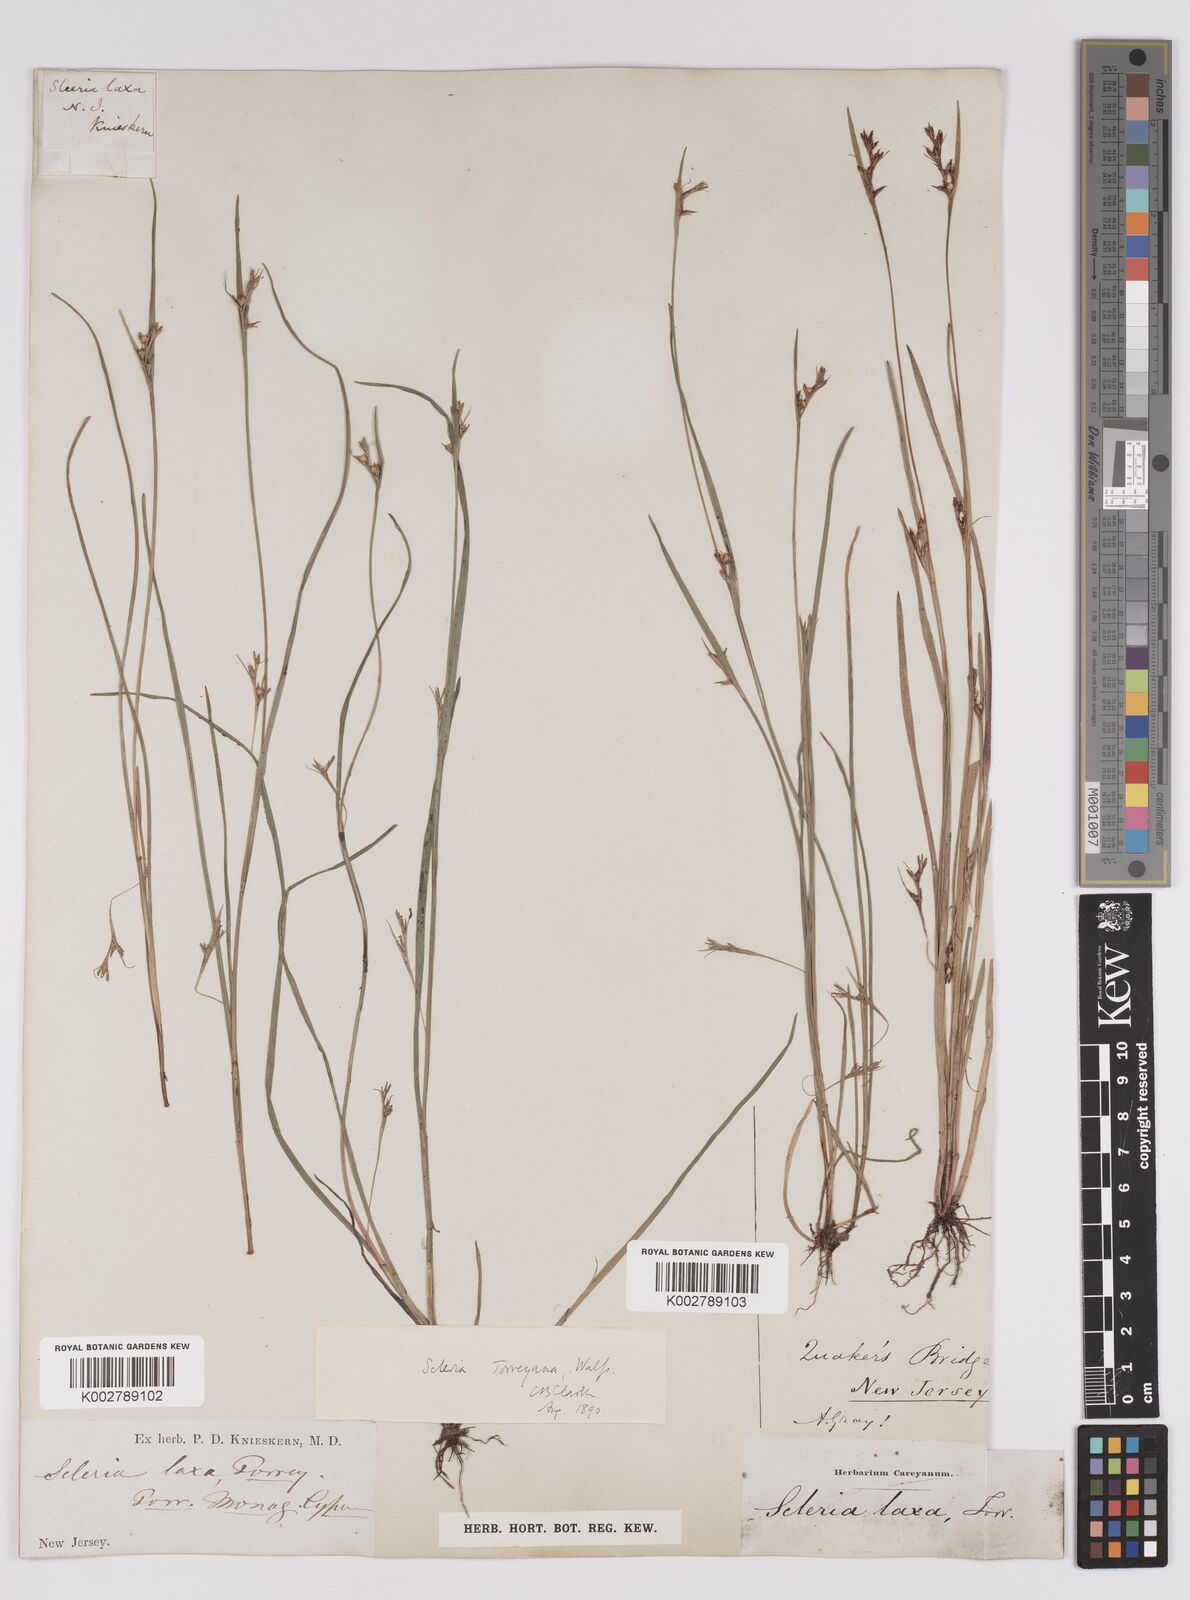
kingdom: Plantae
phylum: Tracheophyta
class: Liliopsida
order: Poales
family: Cyperaceae
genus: Scleria
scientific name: Scleria muehlenbergii
